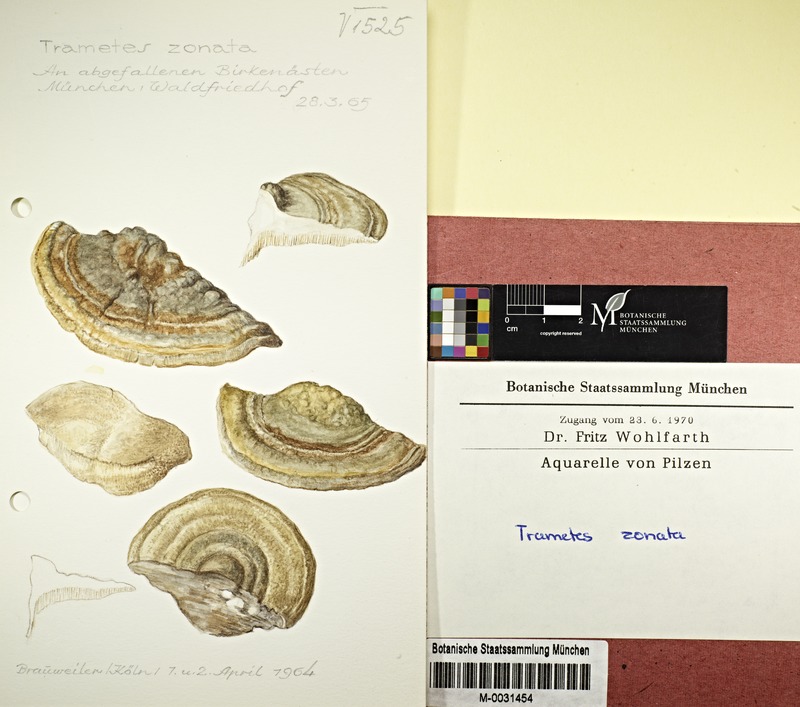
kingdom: Fungi
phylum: Basidiomycota
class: Agaricomycetes
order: Polyporales
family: Polyporaceae
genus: Trametes
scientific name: Trametes ochracea
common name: Ochre bracket
